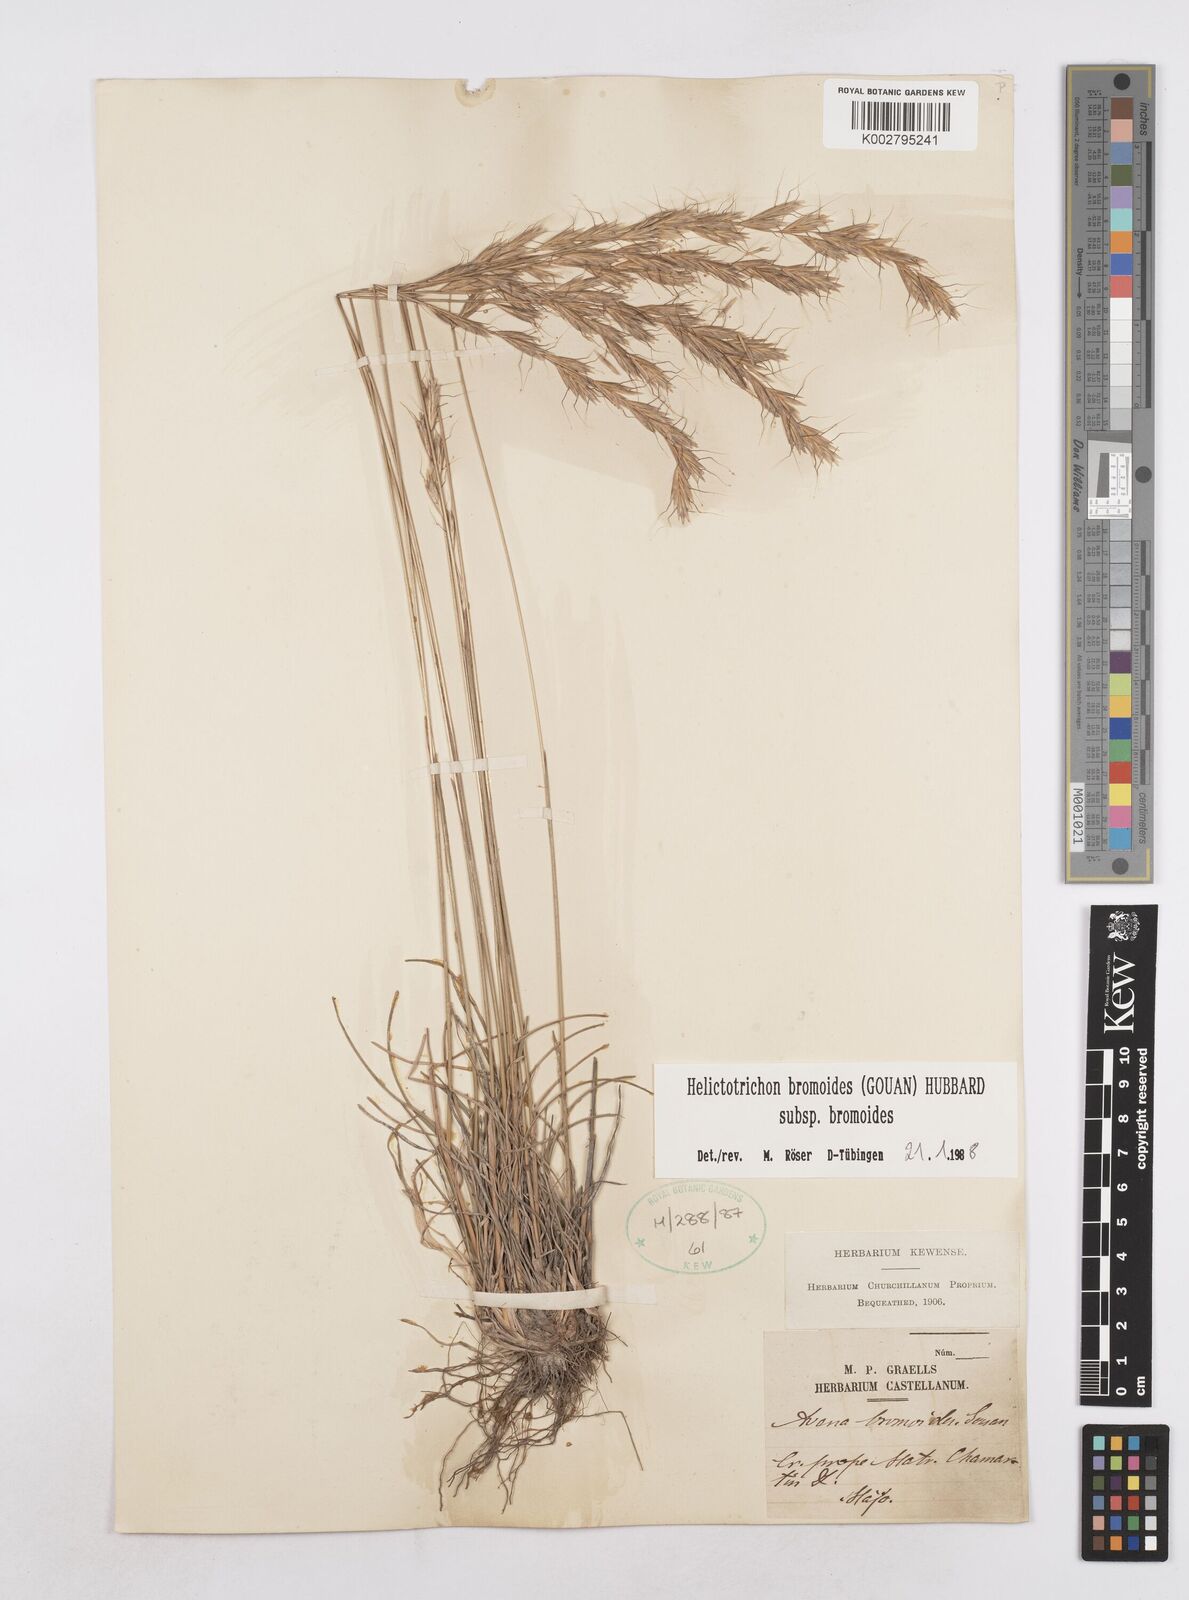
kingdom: Plantae
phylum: Tracheophyta
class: Liliopsida
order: Poales
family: Poaceae
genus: Helictochloa
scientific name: Helictochloa bromoides
